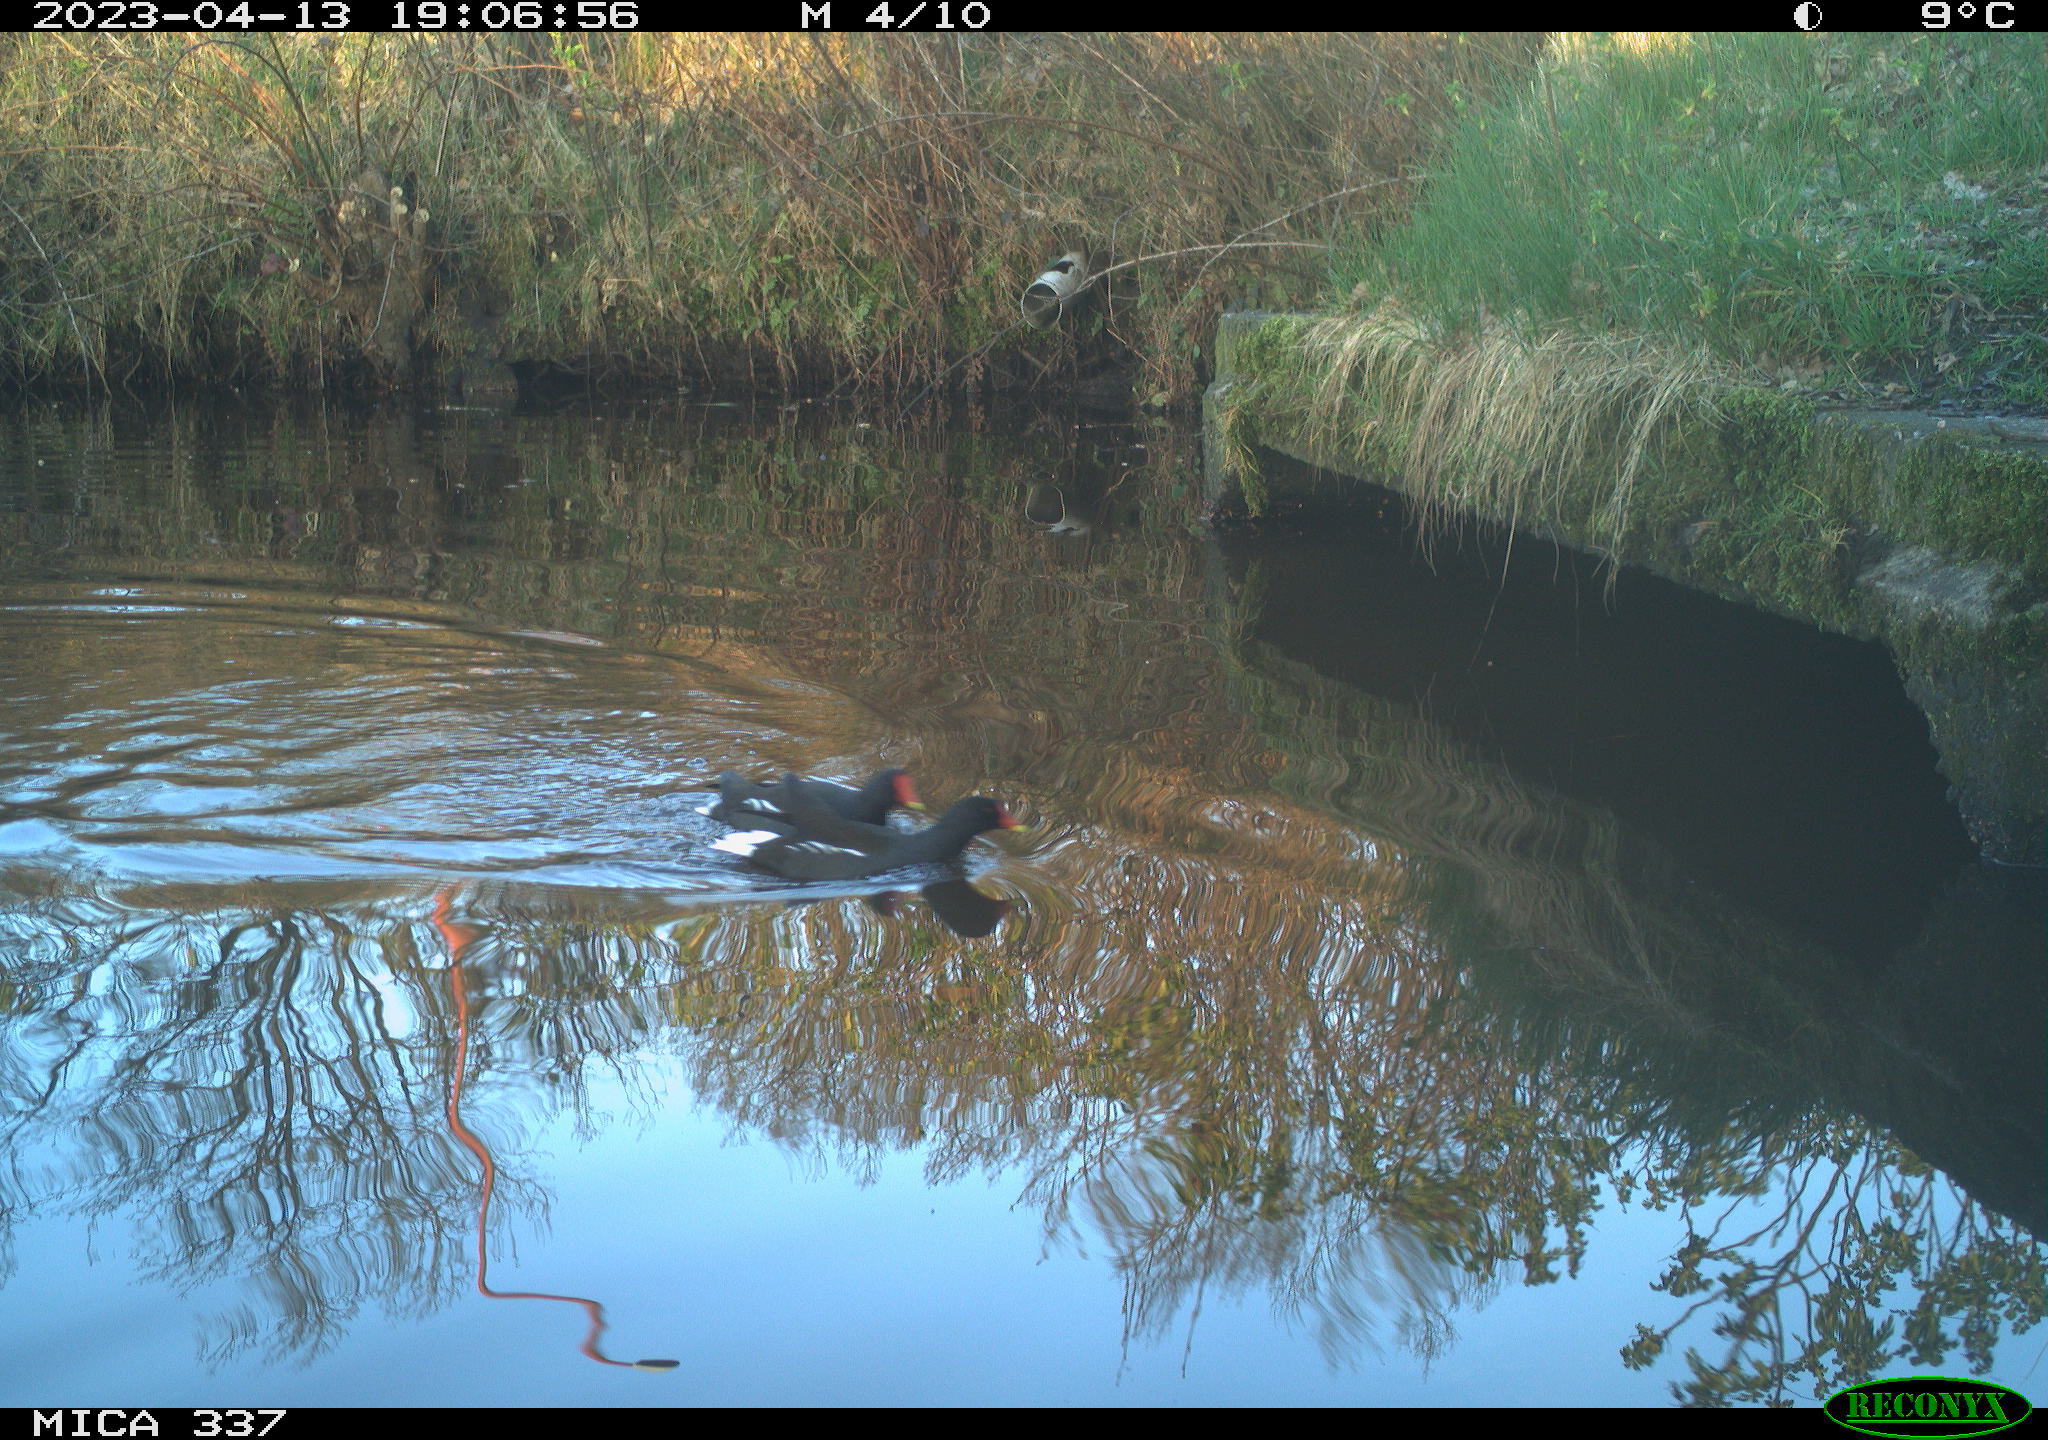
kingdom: Animalia
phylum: Chordata
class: Aves
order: Gruiformes
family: Rallidae
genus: Gallinula
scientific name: Gallinula chloropus
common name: Common moorhen
